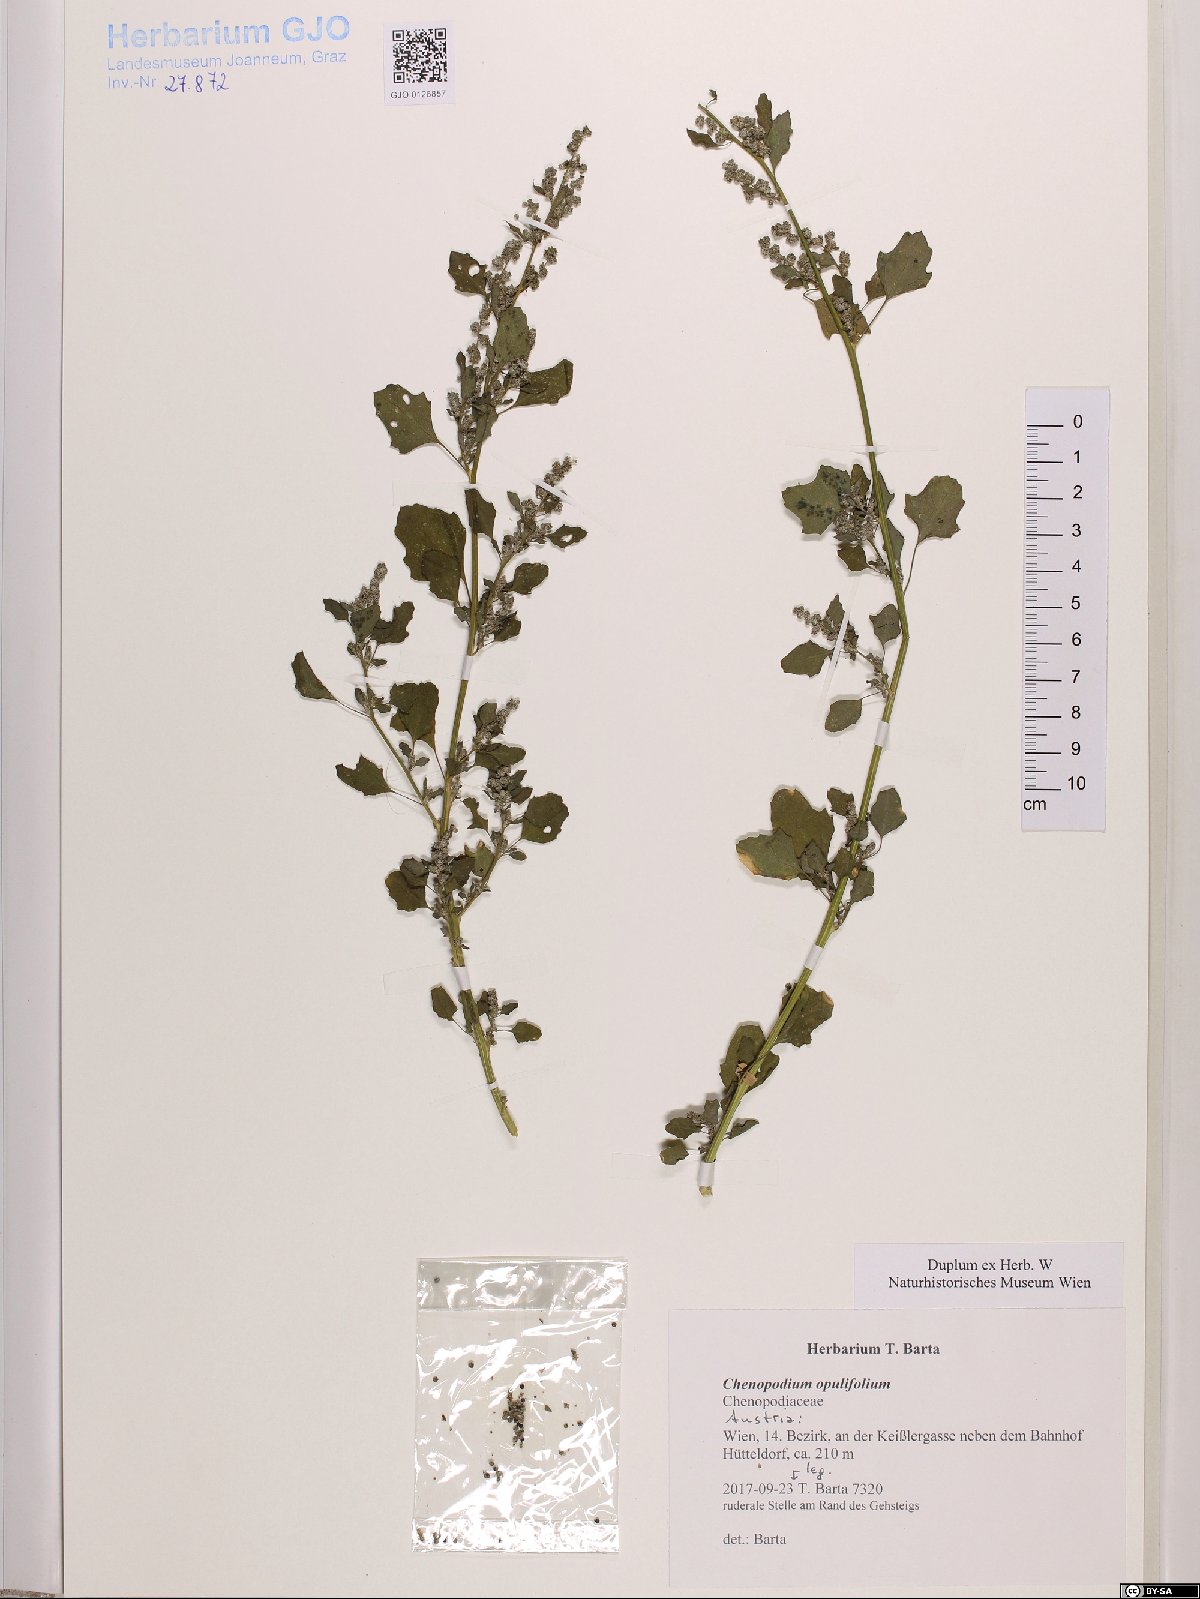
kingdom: Plantae
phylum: Tracheophyta
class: Magnoliopsida
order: Caryophyllales
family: Amaranthaceae
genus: Chenopodium
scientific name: Chenopodium opulifolium
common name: Grey goosefoot
